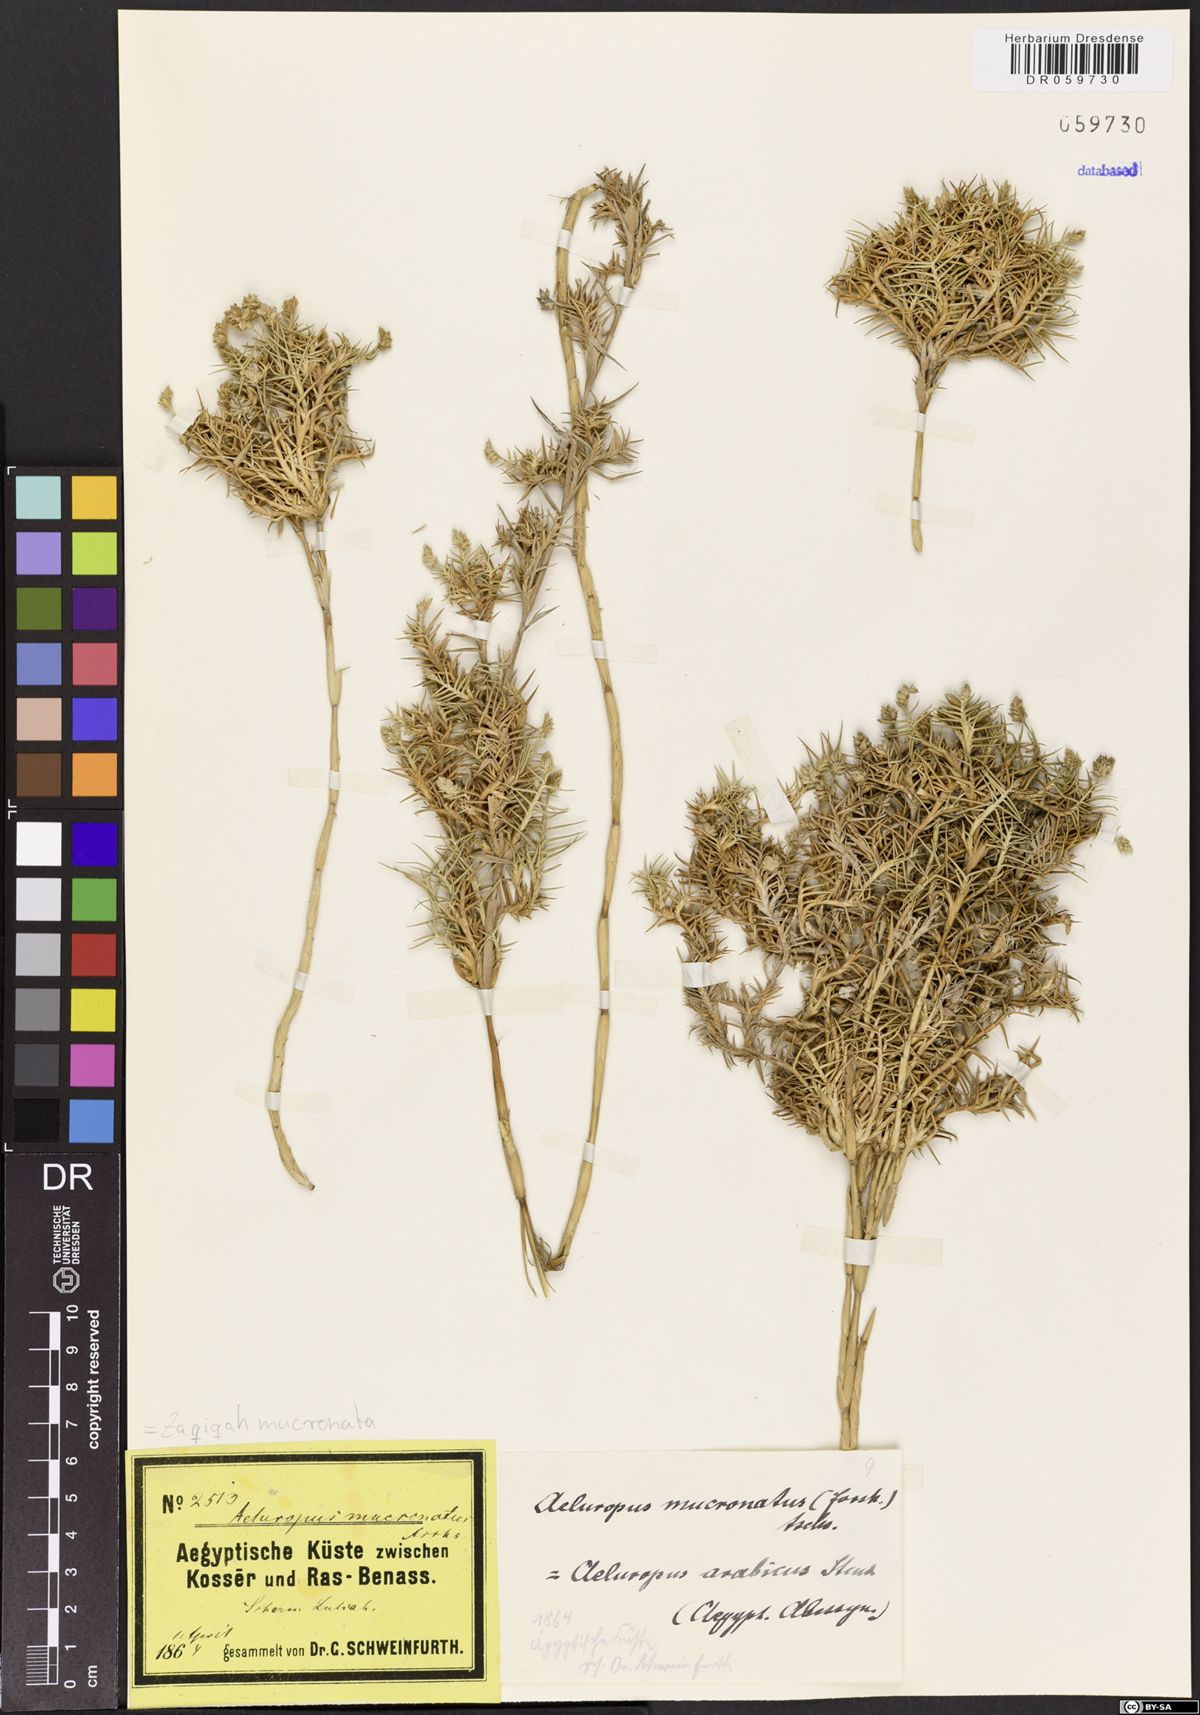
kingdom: Plantae
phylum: Tracheophyta
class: Liliopsida
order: Poales
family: Poaceae
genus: Zaqiqah
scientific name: Zaqiqah mucronata
